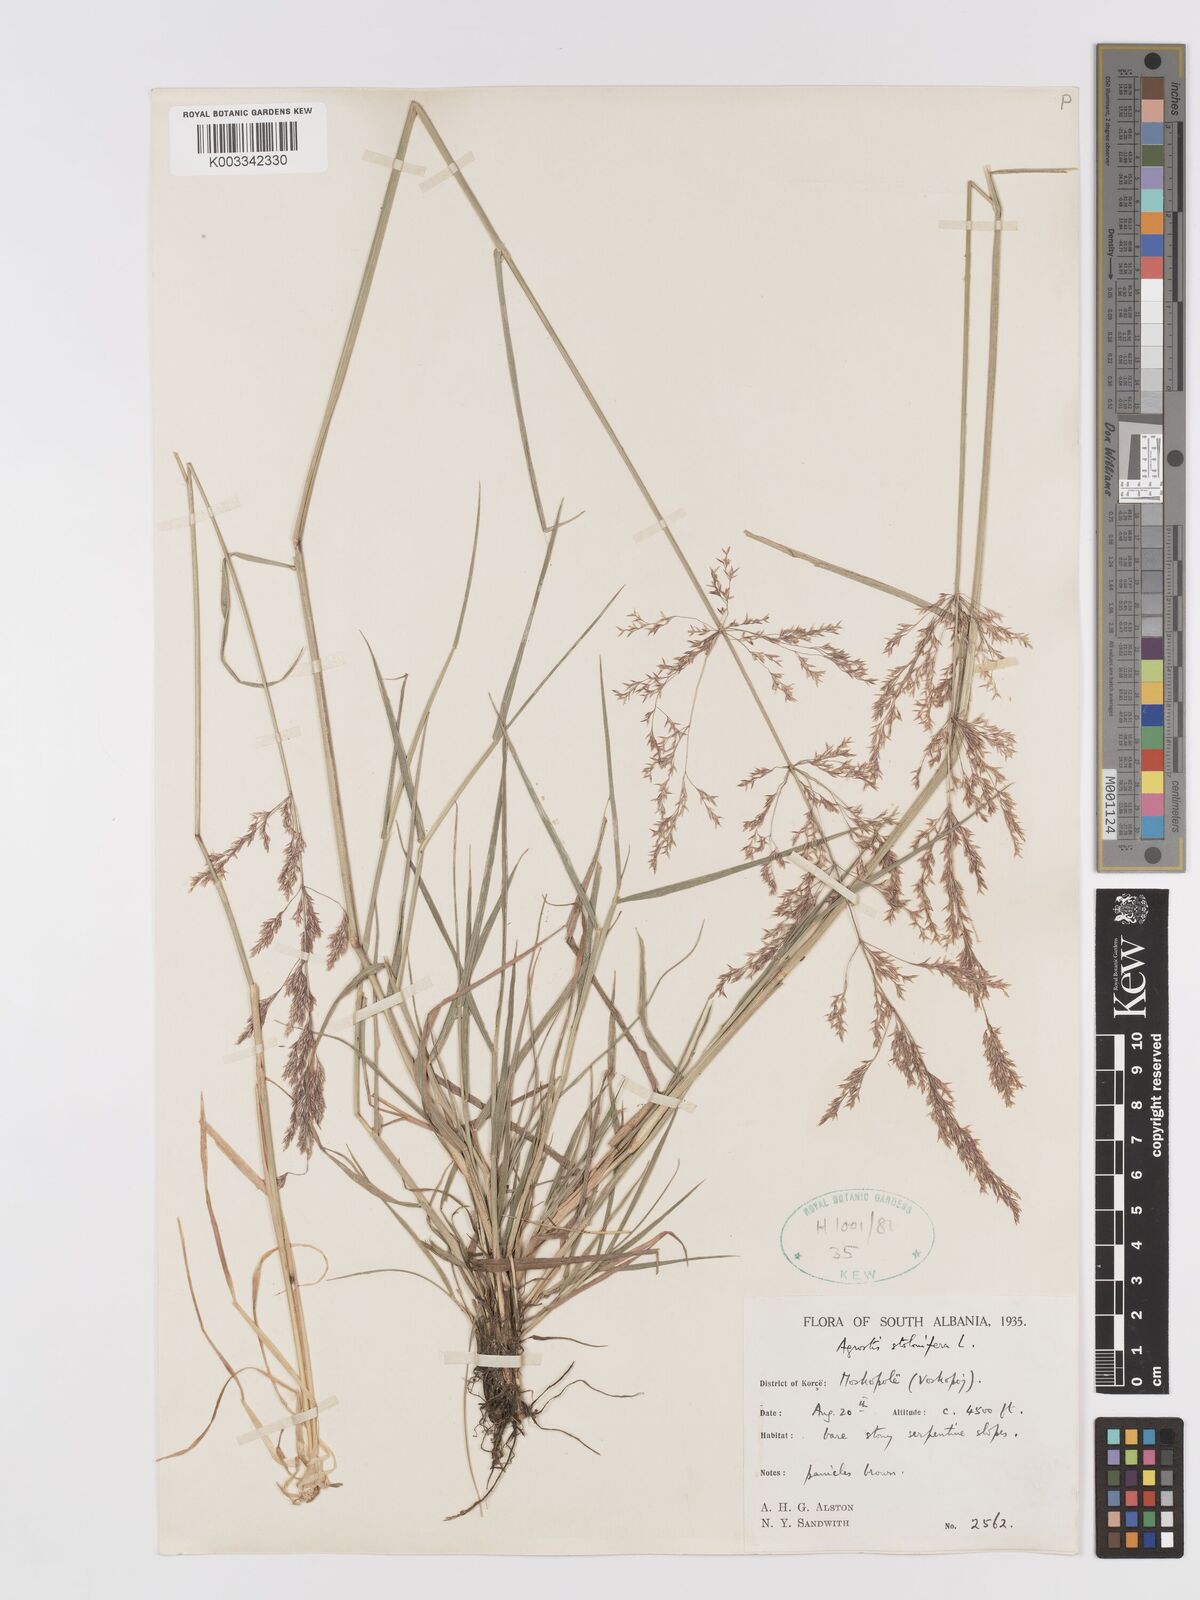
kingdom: Plantae
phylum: Tracheophyta
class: Liliopsida
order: Poales
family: Poaceae
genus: Agrostis
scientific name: Agrostis gigantea
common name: Black bent
